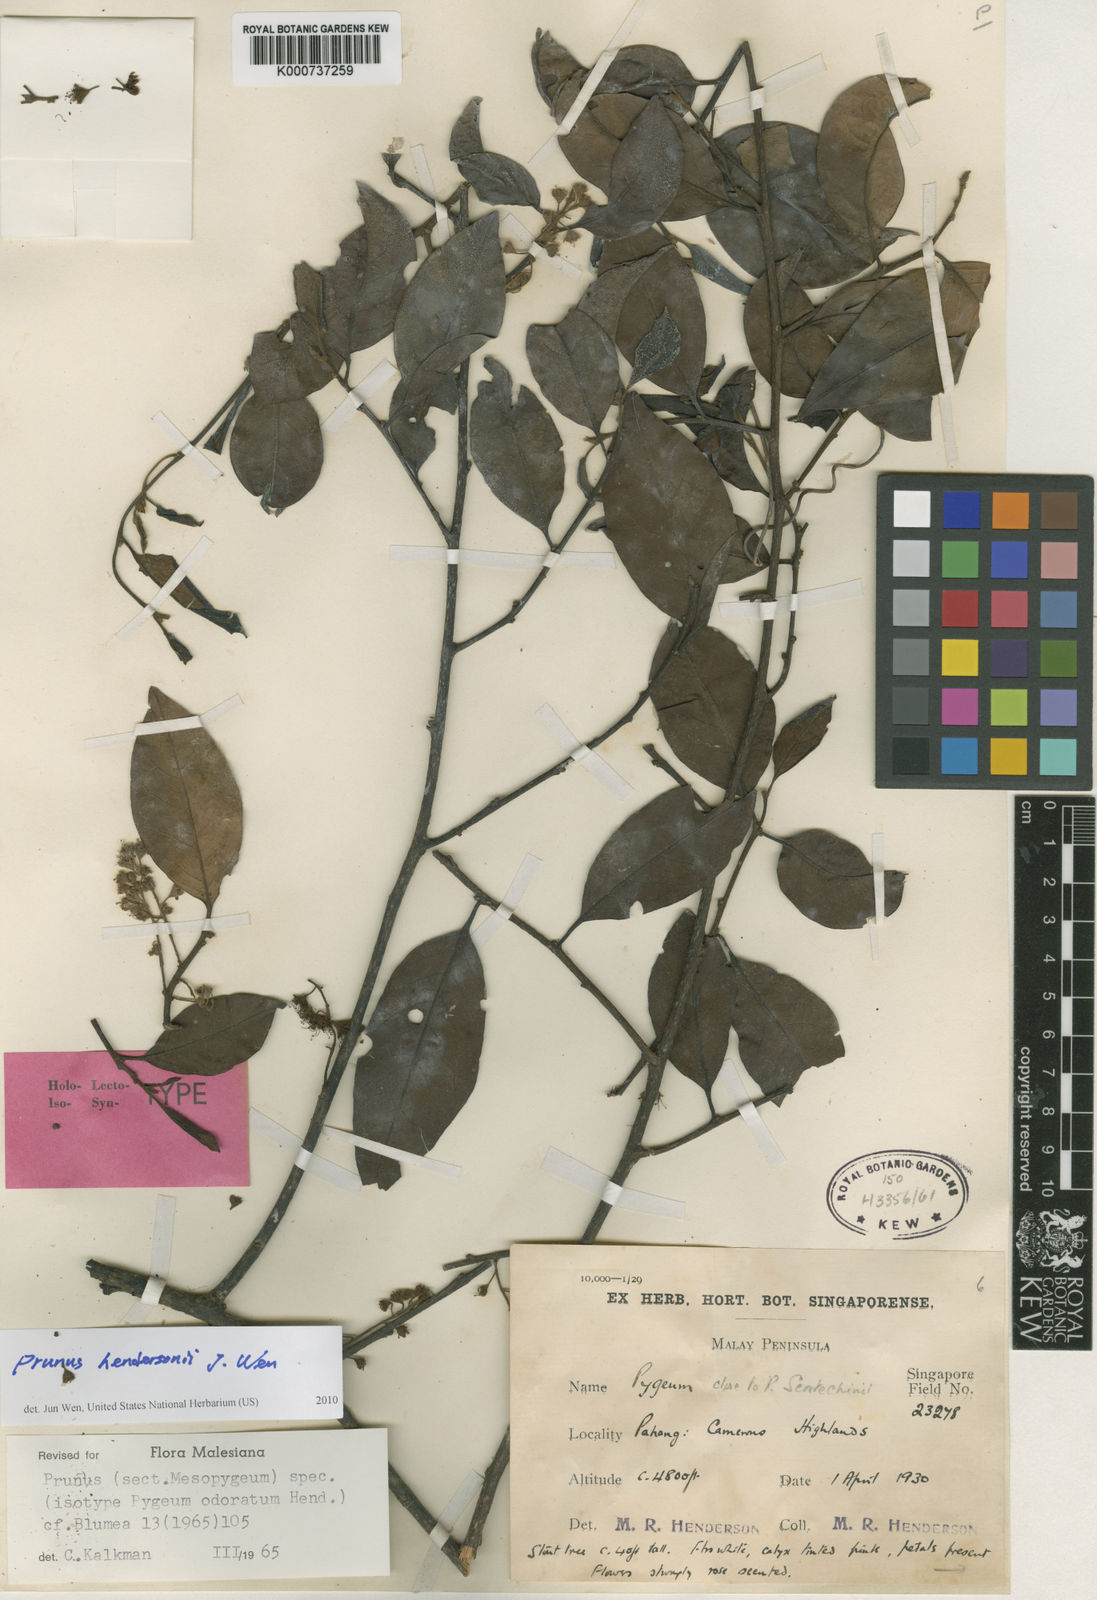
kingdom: Plantae
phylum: Tracheophyta
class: Magnoliopsida
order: Rosales
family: Rosaceae
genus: Prunus
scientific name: Prunus
